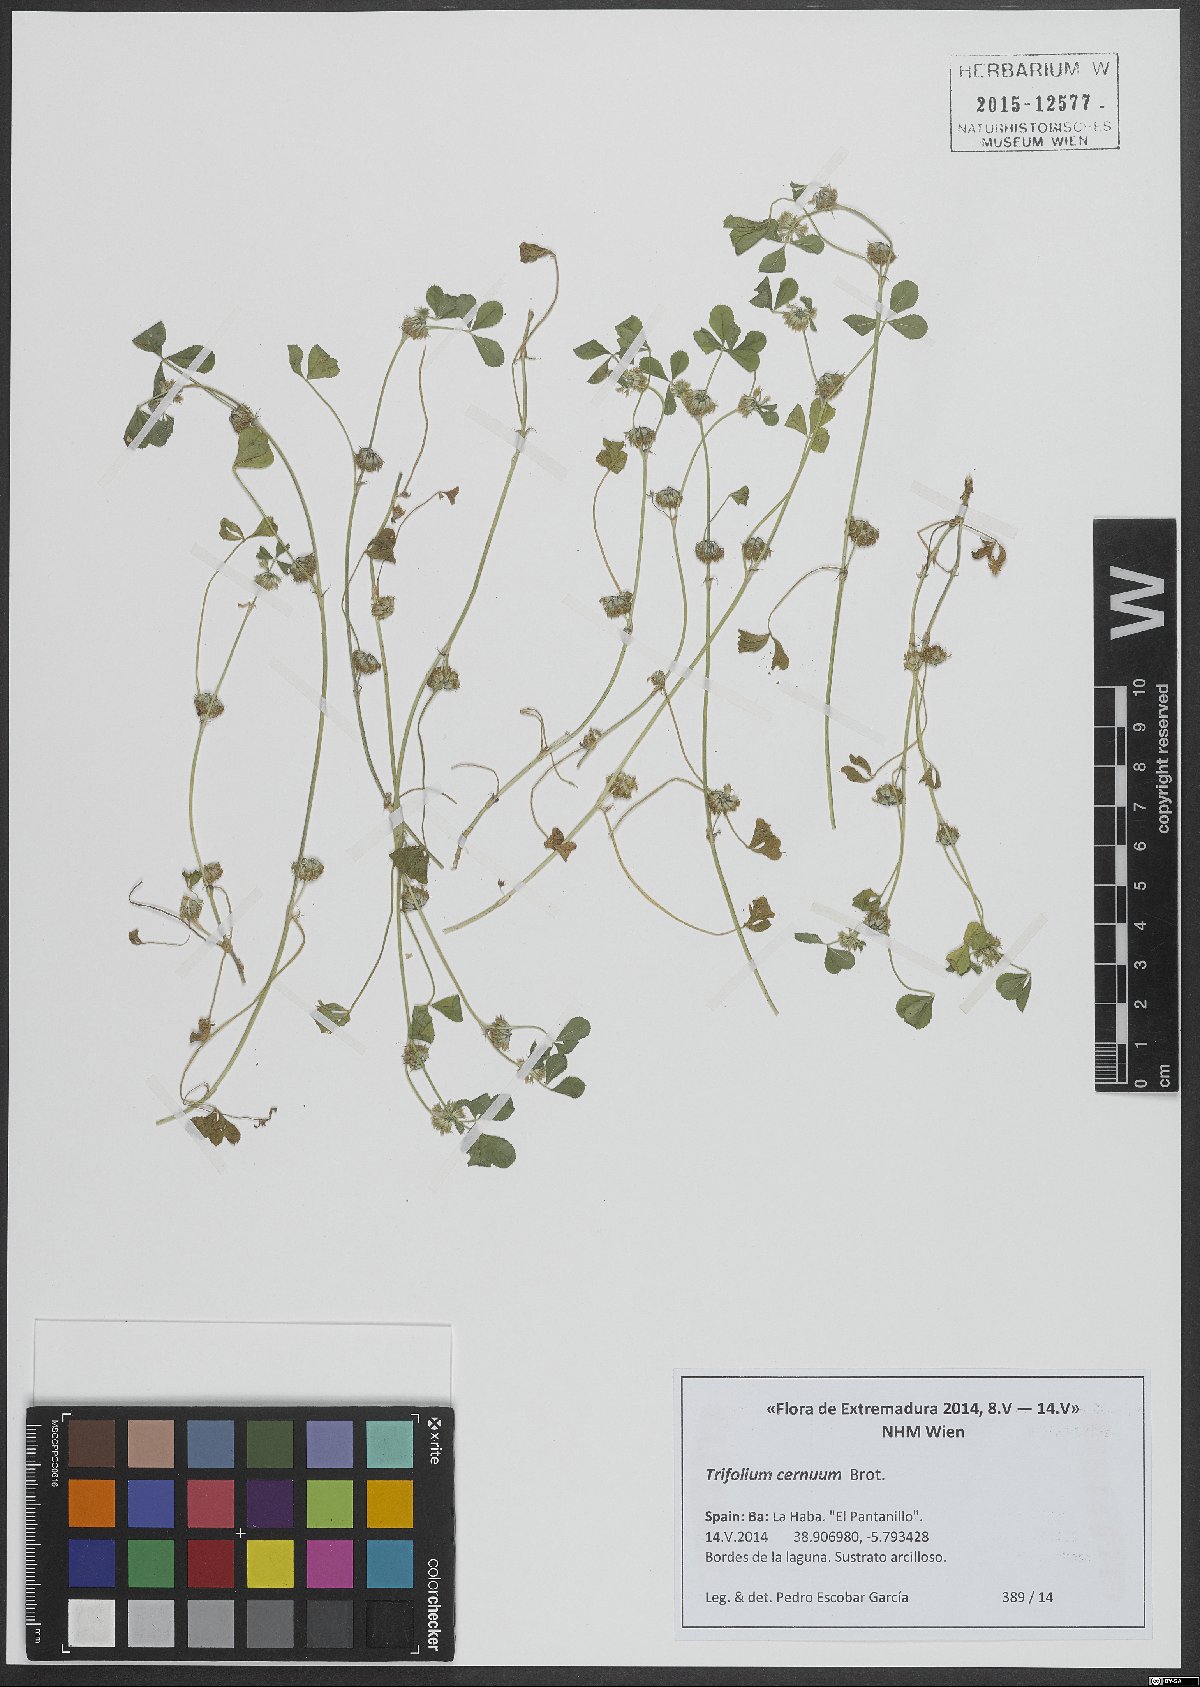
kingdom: Plantae
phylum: Tracheophyta
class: Magnoliopsida
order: Fabales
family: Fabaceae
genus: Trifolium
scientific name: Trifolium cernuum
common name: Nodding clover
